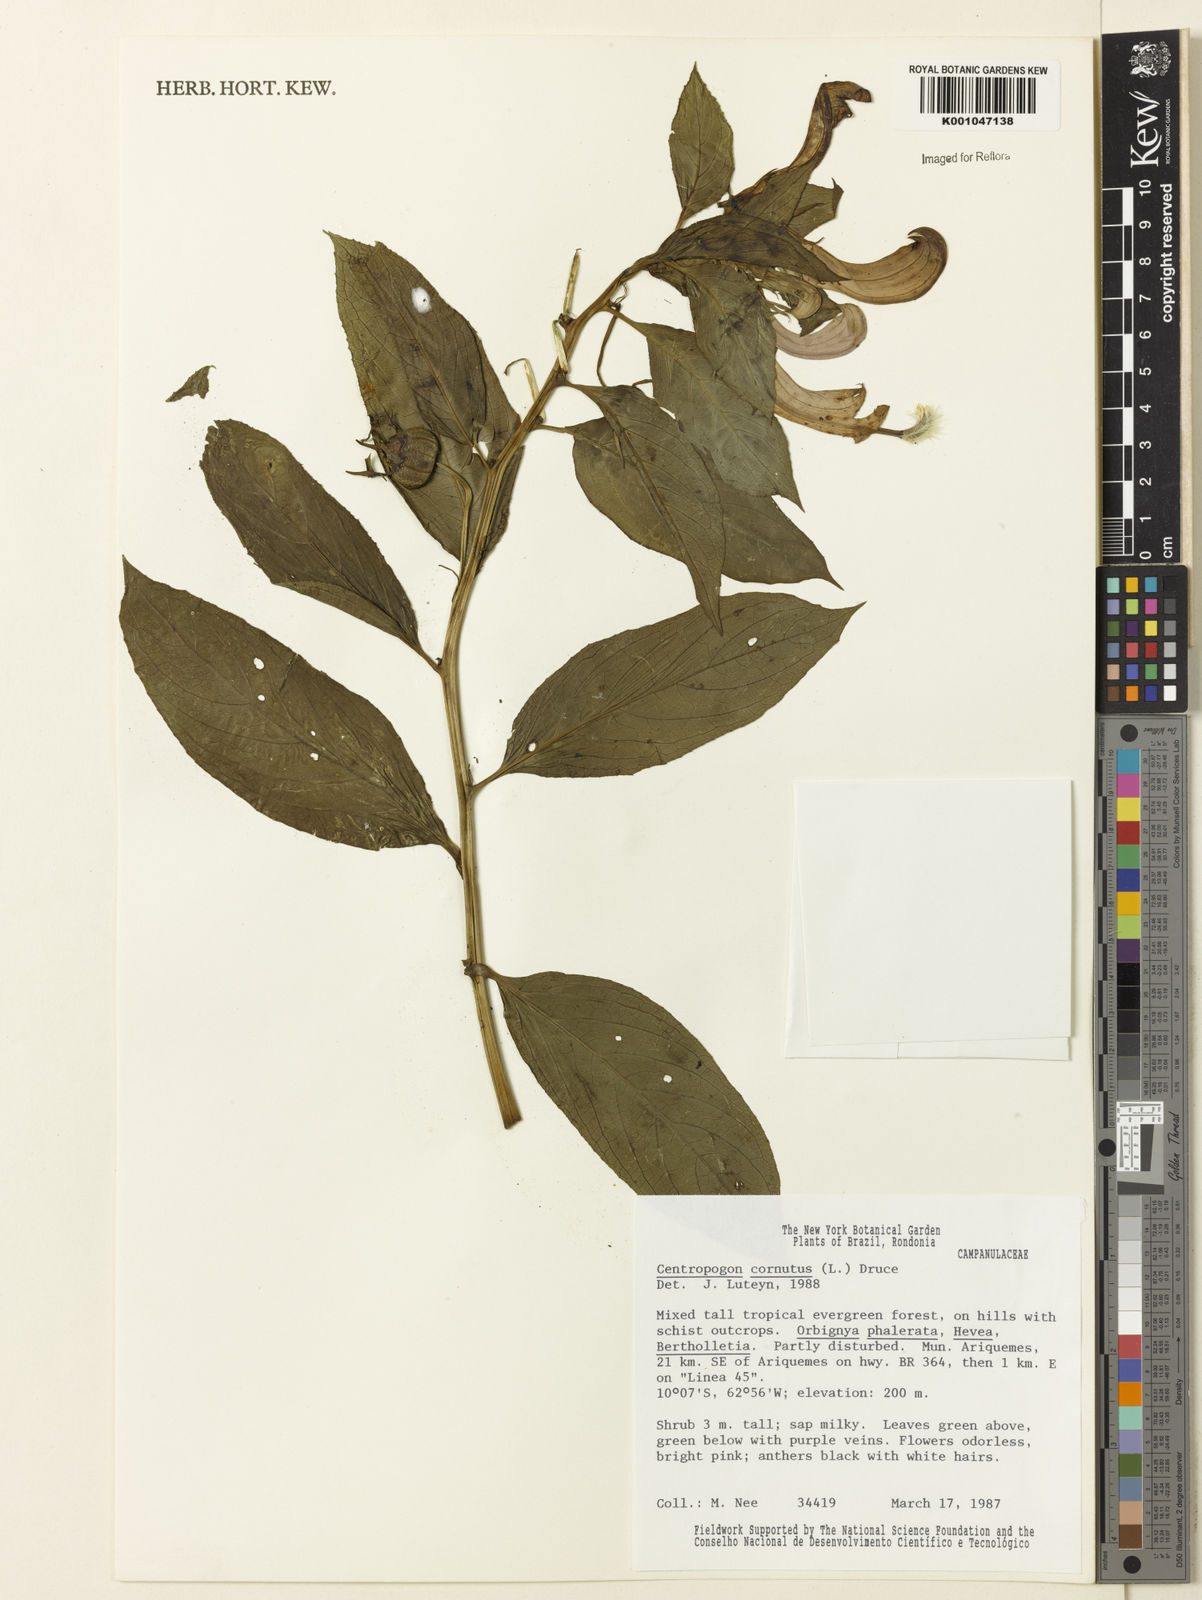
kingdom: Plantae
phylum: Tracheophyta
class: Magnoliopsida
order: Asterales
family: Campanulaceae
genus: Centropogon
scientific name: Centropogon cornutus
